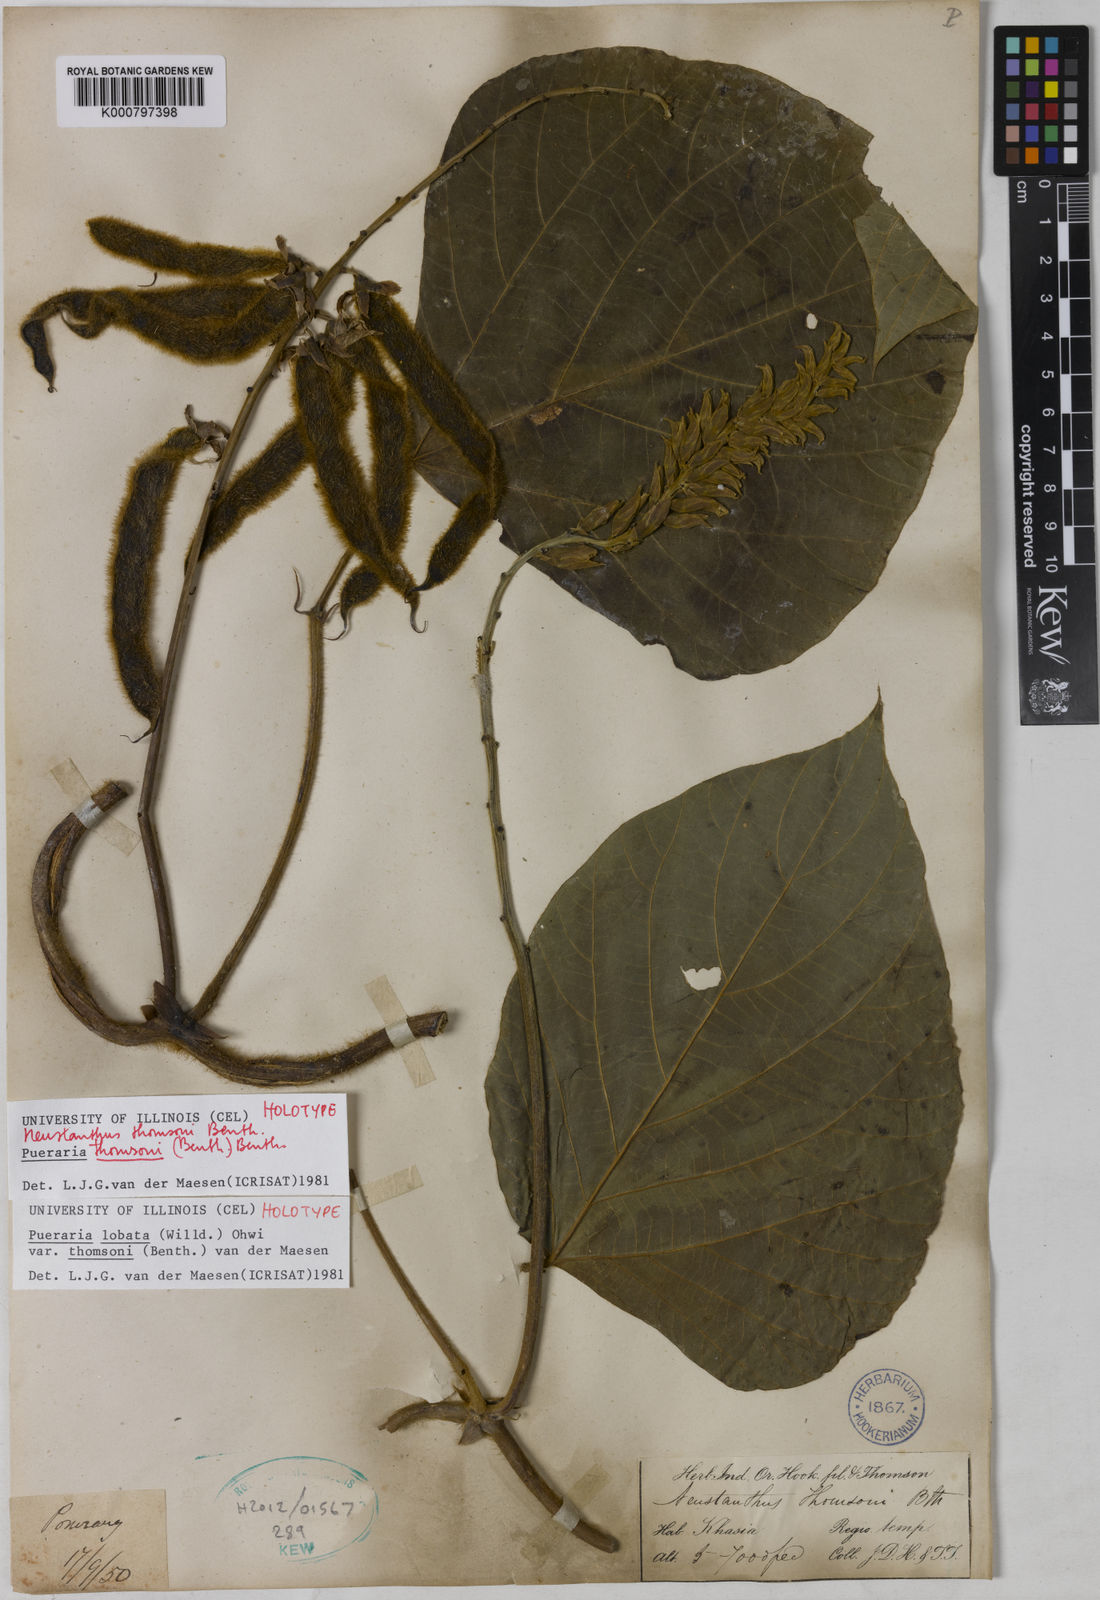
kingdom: Plantae
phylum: Tracheophyta
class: Magnoliopsida
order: Fabales
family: Fabaceae
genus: Pueraria
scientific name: Pueraria montana
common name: Kudzu
